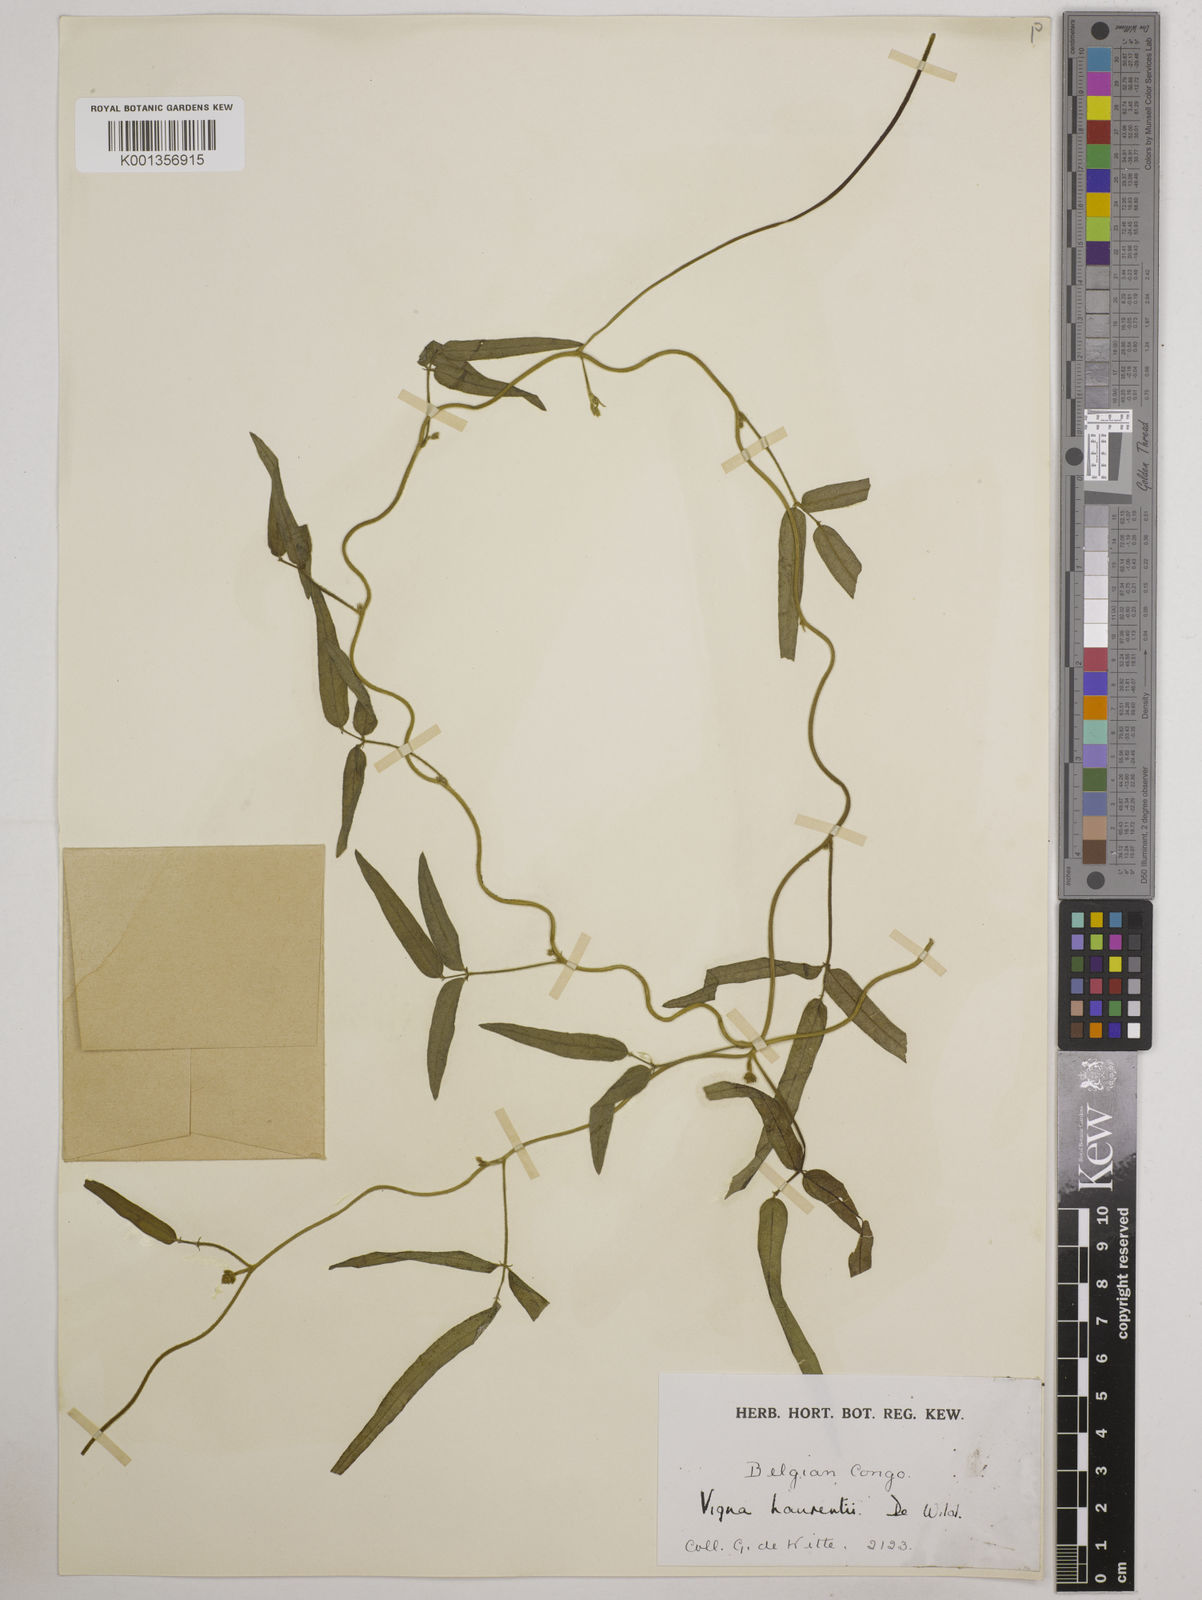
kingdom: Plantae
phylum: Tracheophyta
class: Magnoliopsida
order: Fabales
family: Fabaceae
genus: Vigna
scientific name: Vigna
